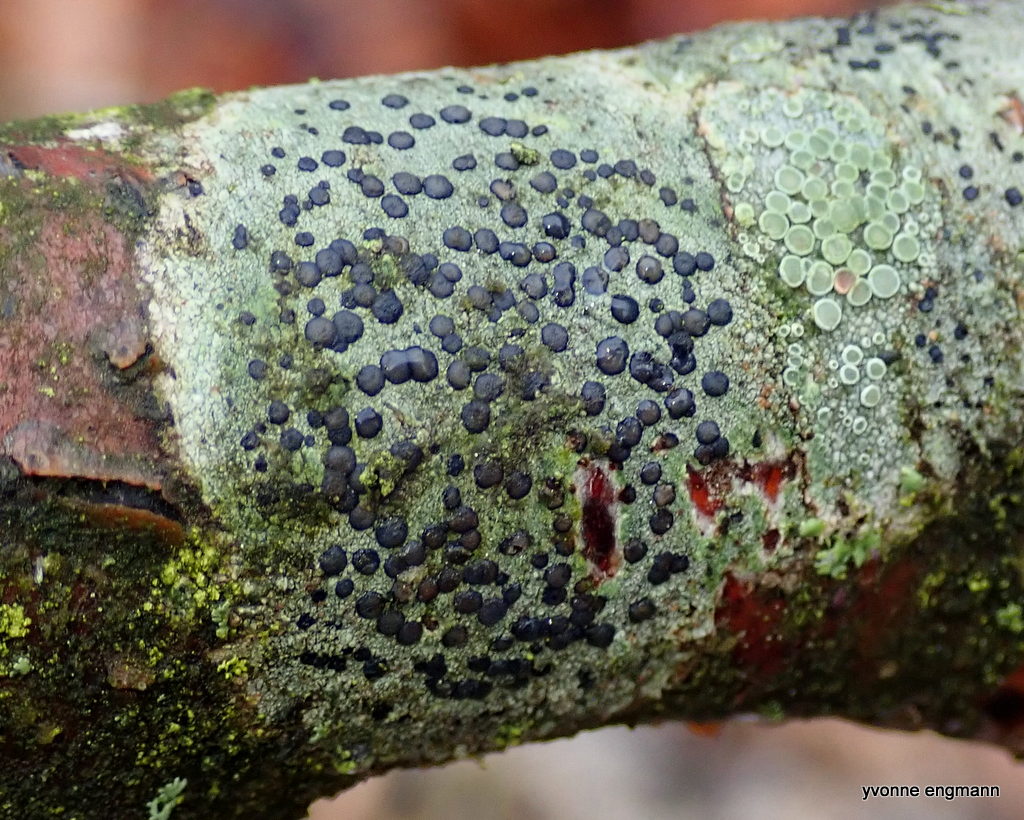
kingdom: Fungi
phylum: Ascomycota
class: Lecanoromycetes
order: Lecanorales
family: Lecanoraceae
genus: Lecidella
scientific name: Lecidella elaeochroma
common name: grågrøn skivelav
